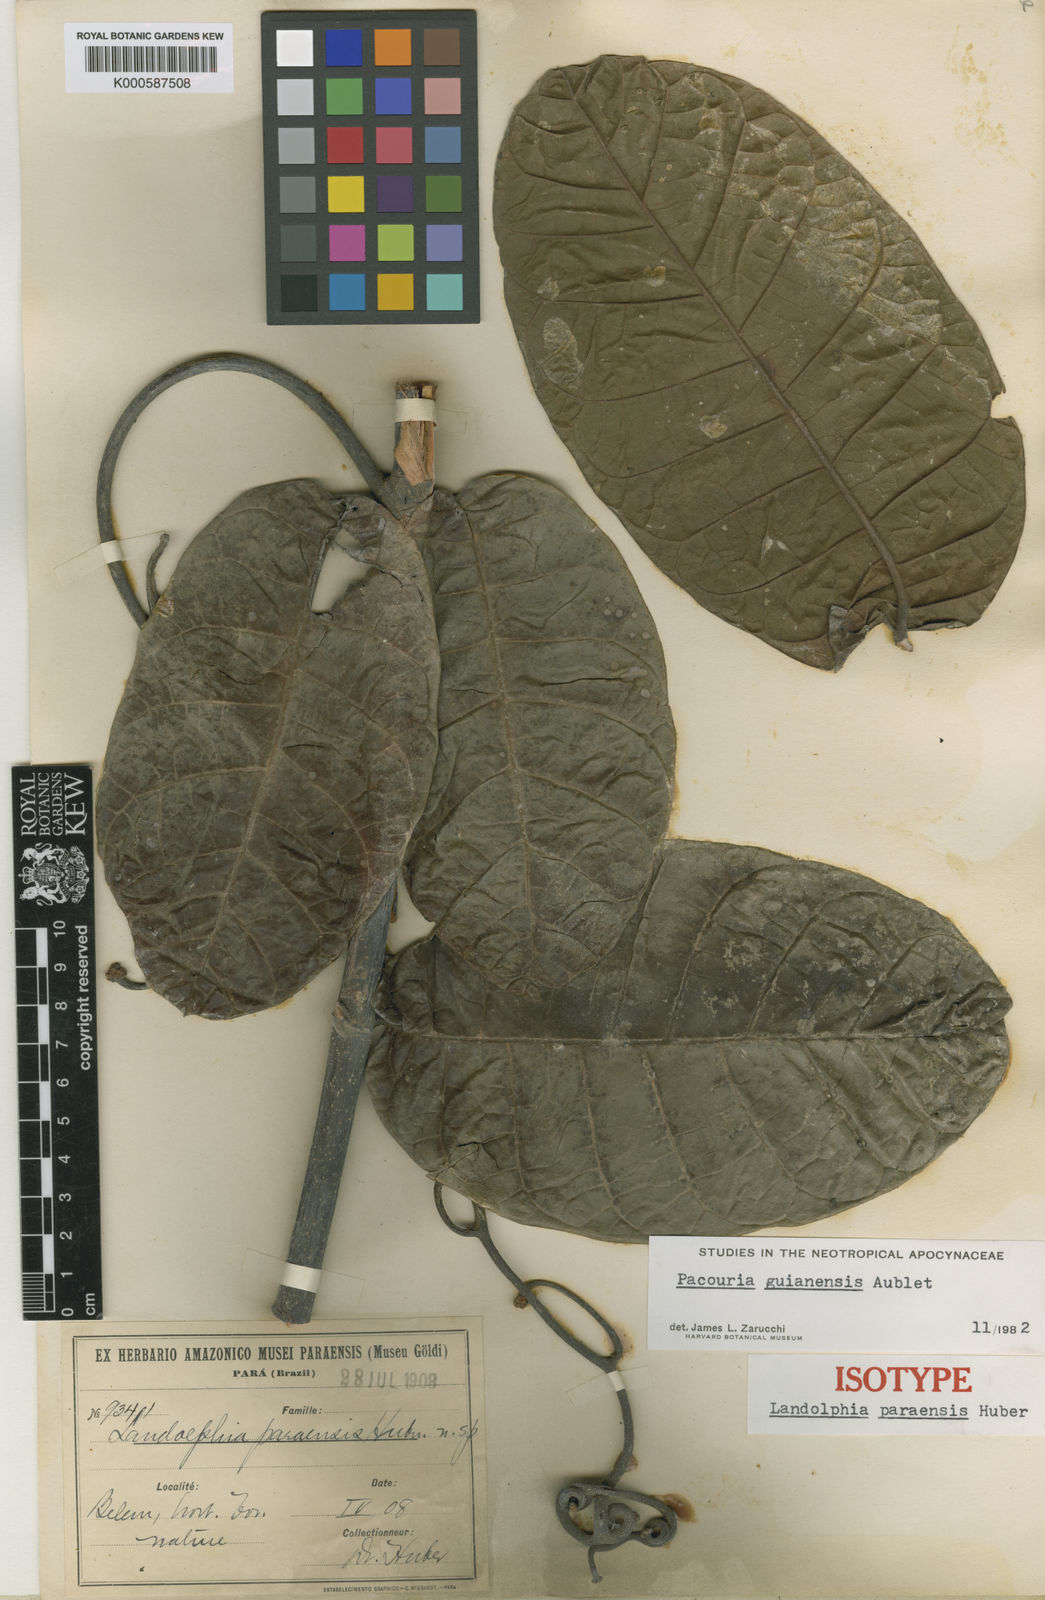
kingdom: Plantae
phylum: Tracheophyta
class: Magnoliopsida
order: Gentianales
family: Apocynaceae
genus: Pacouria
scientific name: Pacouria guianensis
